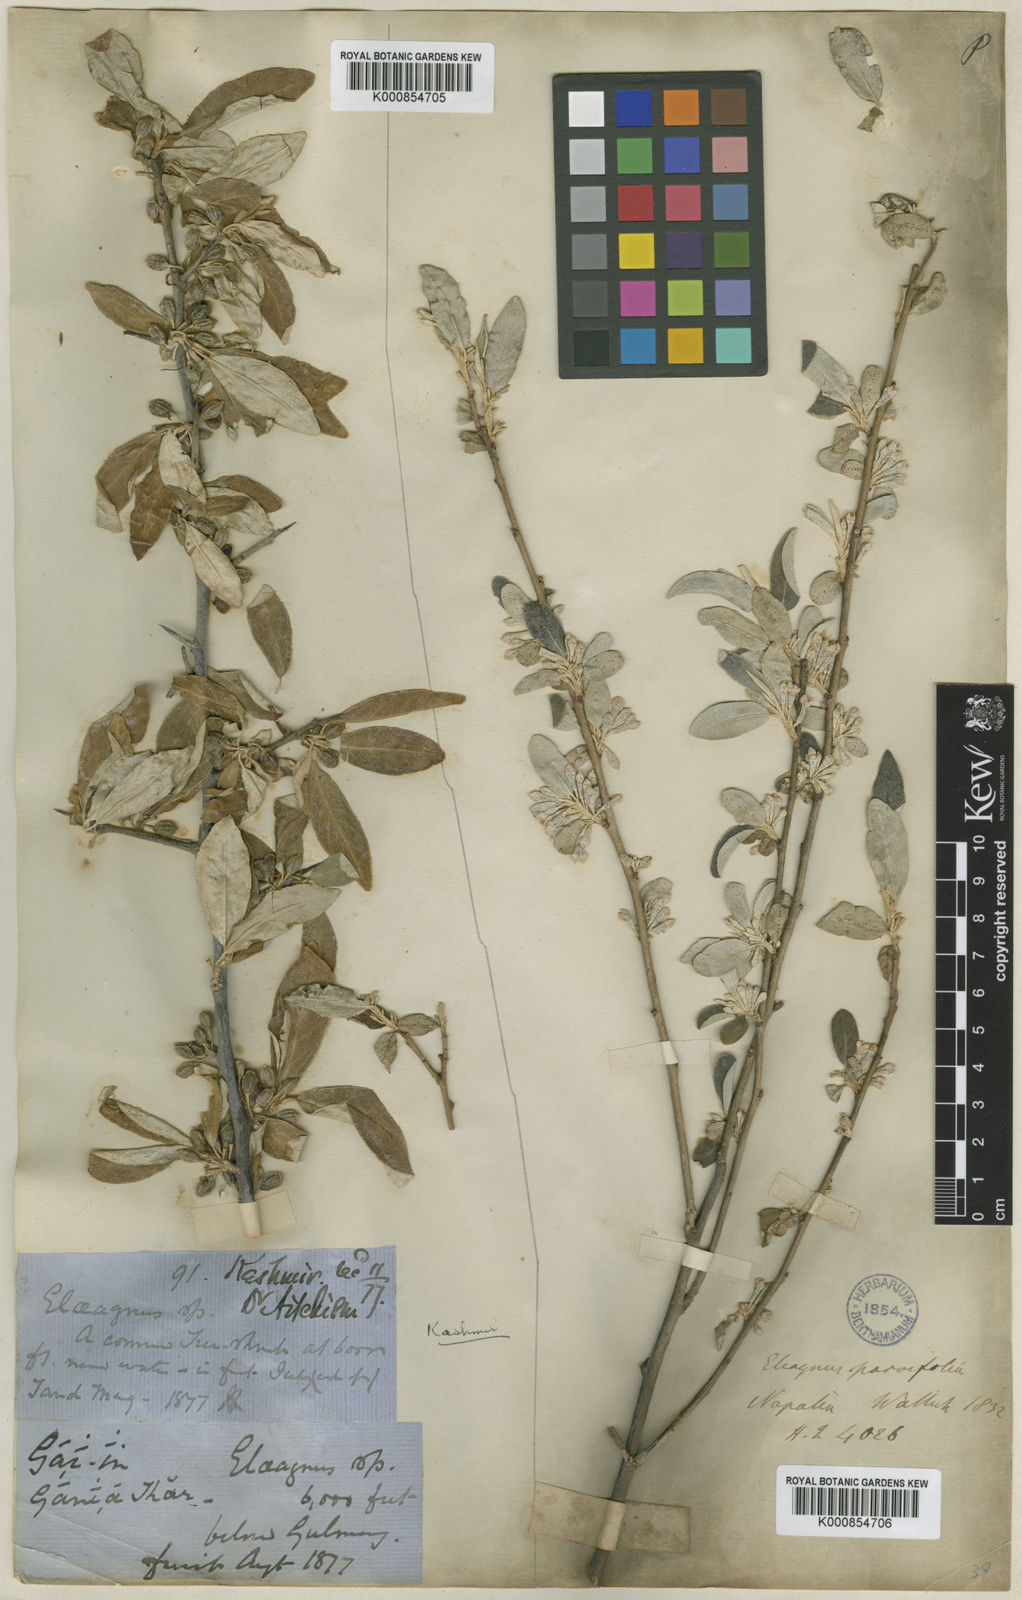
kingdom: Plantae
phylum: Tracheophyta
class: Magnoliopsida
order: Rosales
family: Elaeagnaceae
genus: Elaeagnus
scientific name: Elaeagnus umbellata
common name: Autumn olive
